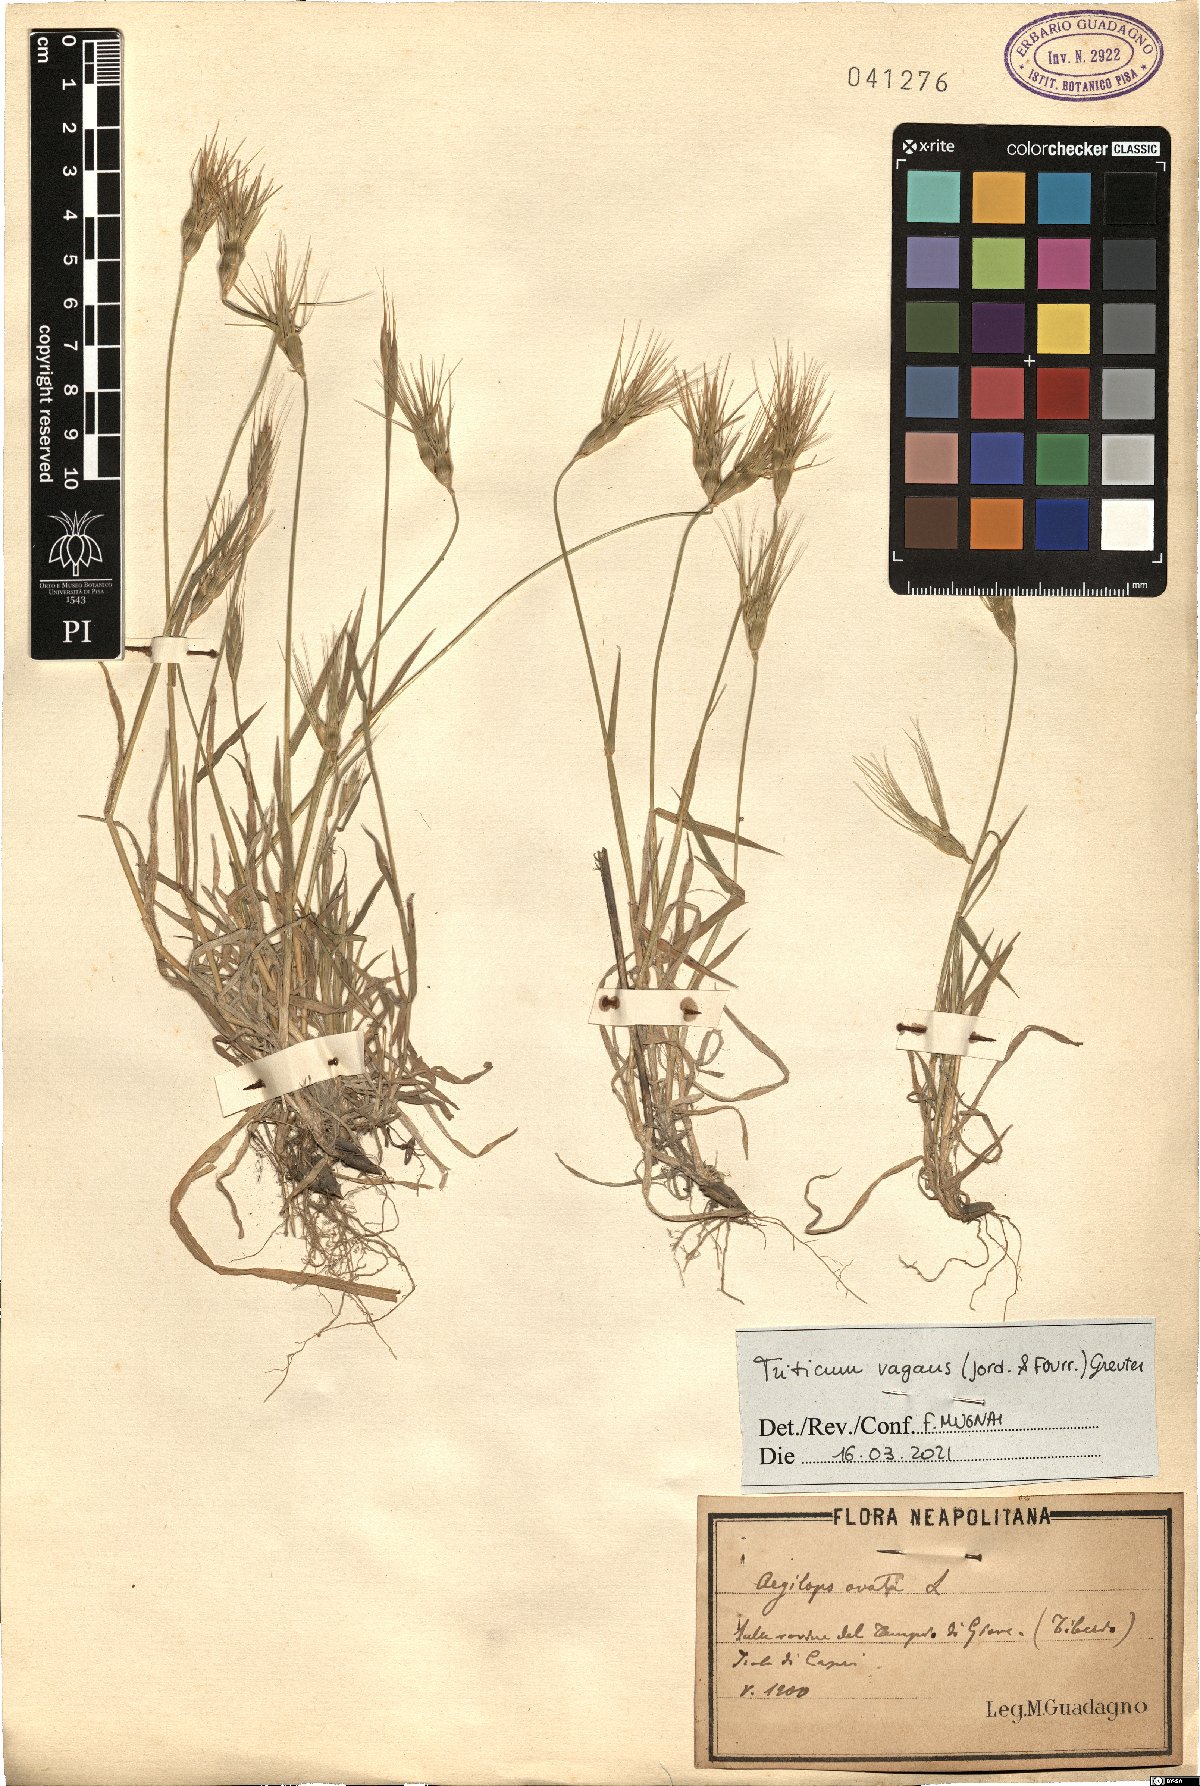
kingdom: Plantae
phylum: Tracheophyta
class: Liliopsida
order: Poales
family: Poaceae
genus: Aegilops
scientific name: Aegilops geniculata
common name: Ovate goat grass
